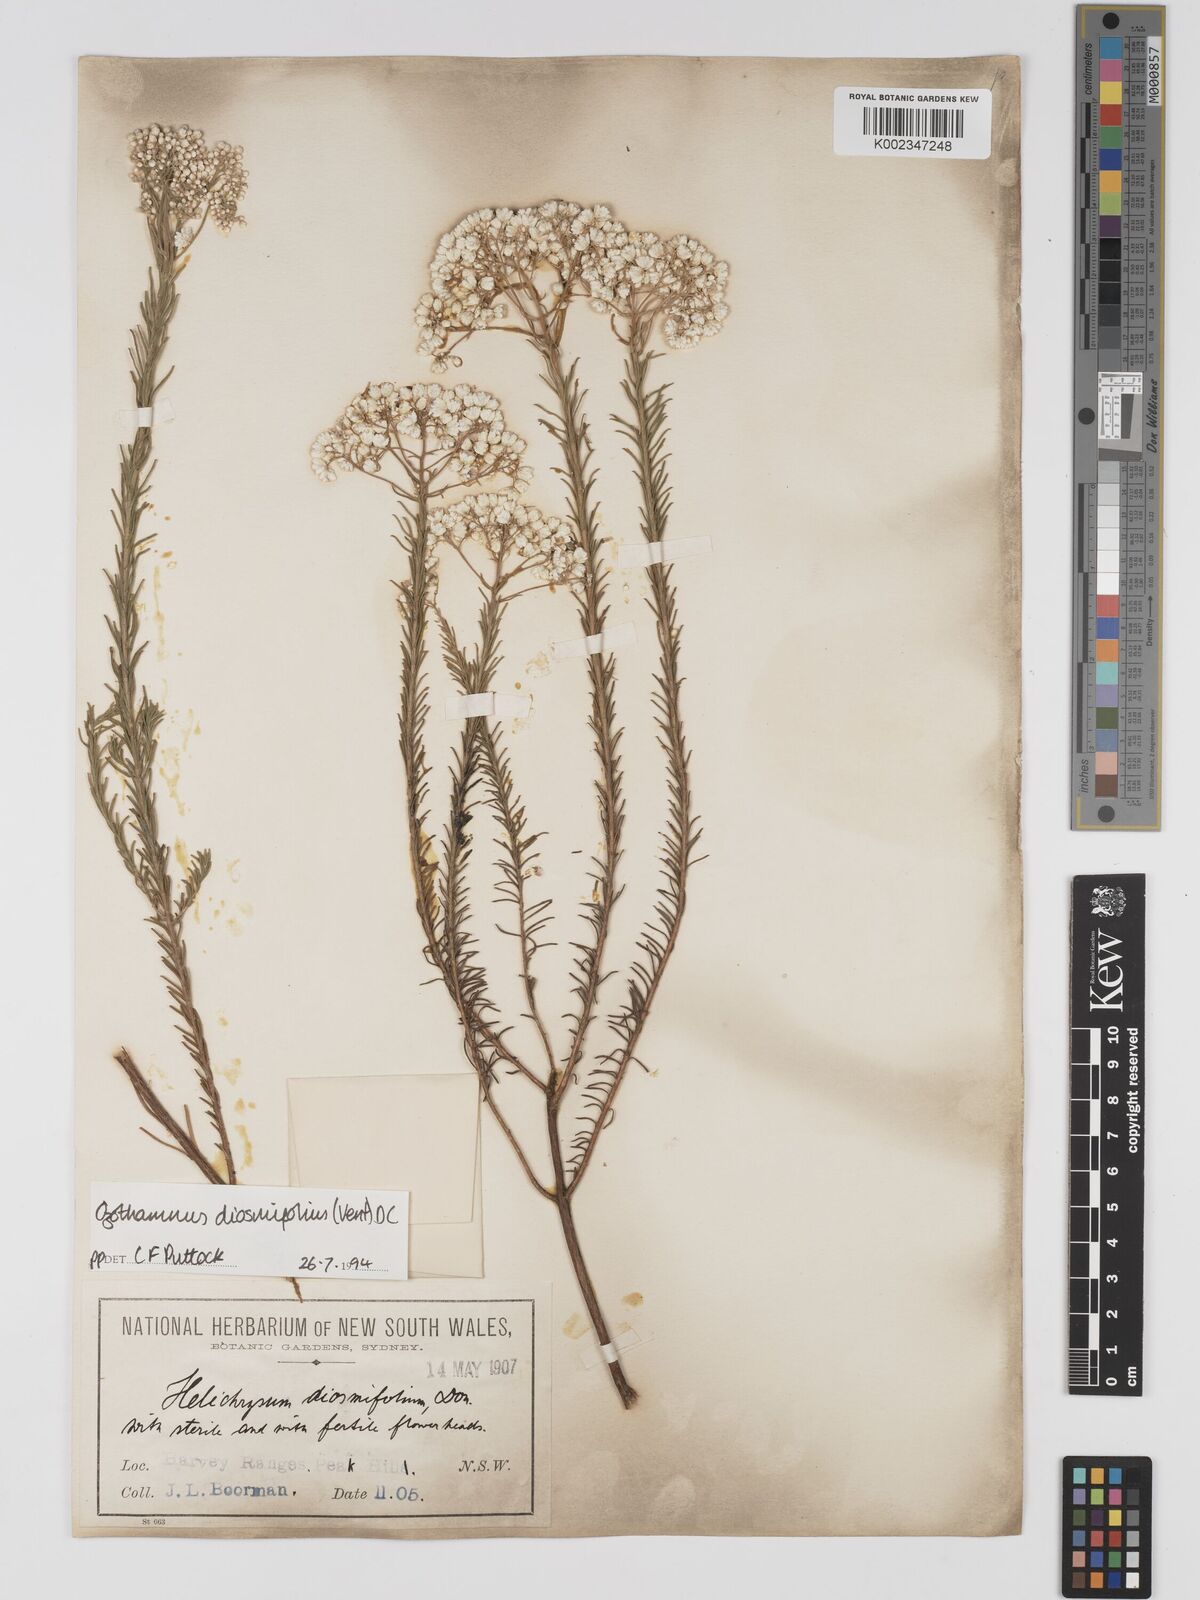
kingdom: Plantae
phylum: Tracheophyta
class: Magnoliopsida
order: Asterales
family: Asteraceae
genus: Ozothamnus
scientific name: Ozothamnus diosmifolius
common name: White-dogwood
